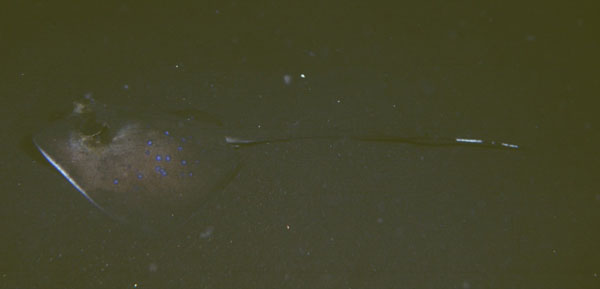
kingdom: Animalia
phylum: Chordata
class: Elasmobranchii
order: Myliobatiformes
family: Dasyatidae
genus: Neotrygon
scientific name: Neotrygon kuhlii
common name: Bluespotted stingray
